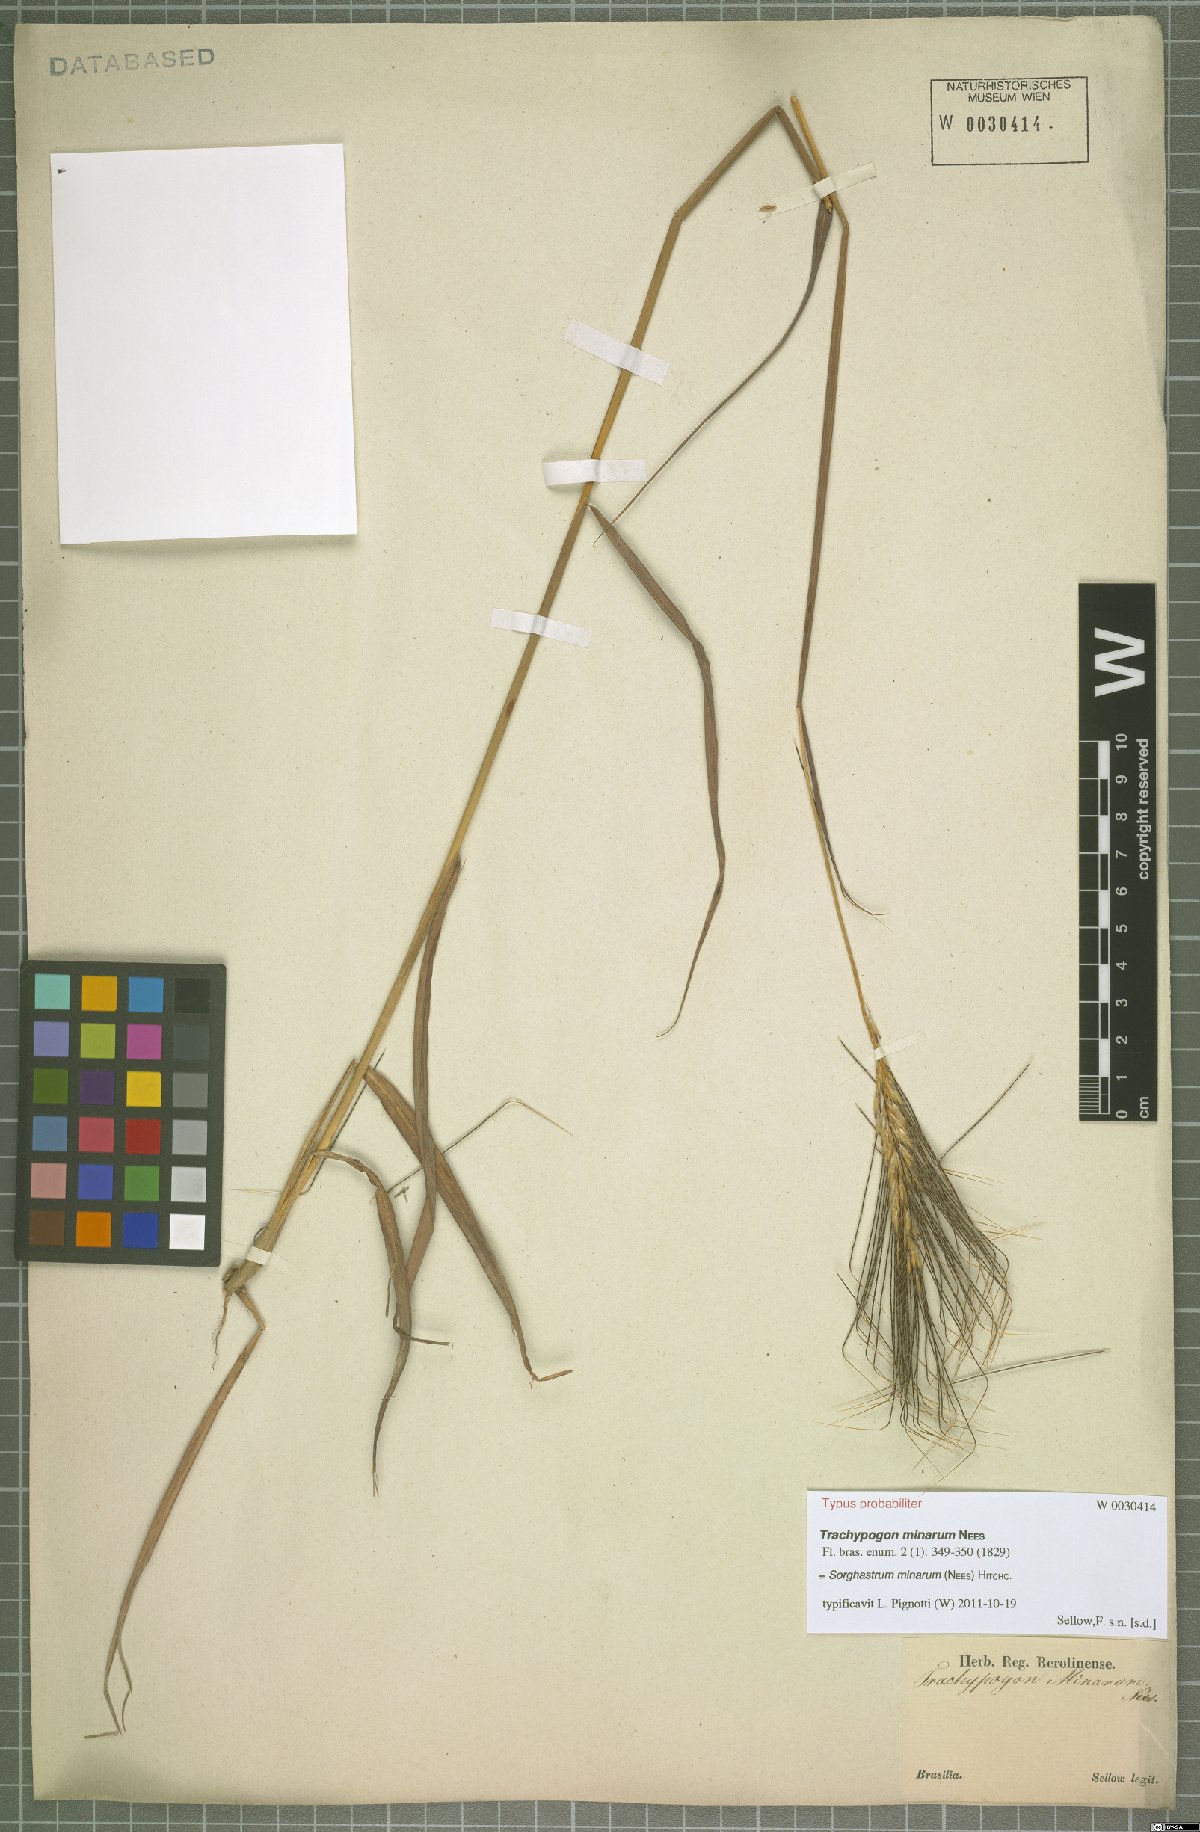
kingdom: Plantae
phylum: Tracheophyta
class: Liliopsida
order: Poales
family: Poaceae
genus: Sorghastrum
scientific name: Sorghastrum minarum
